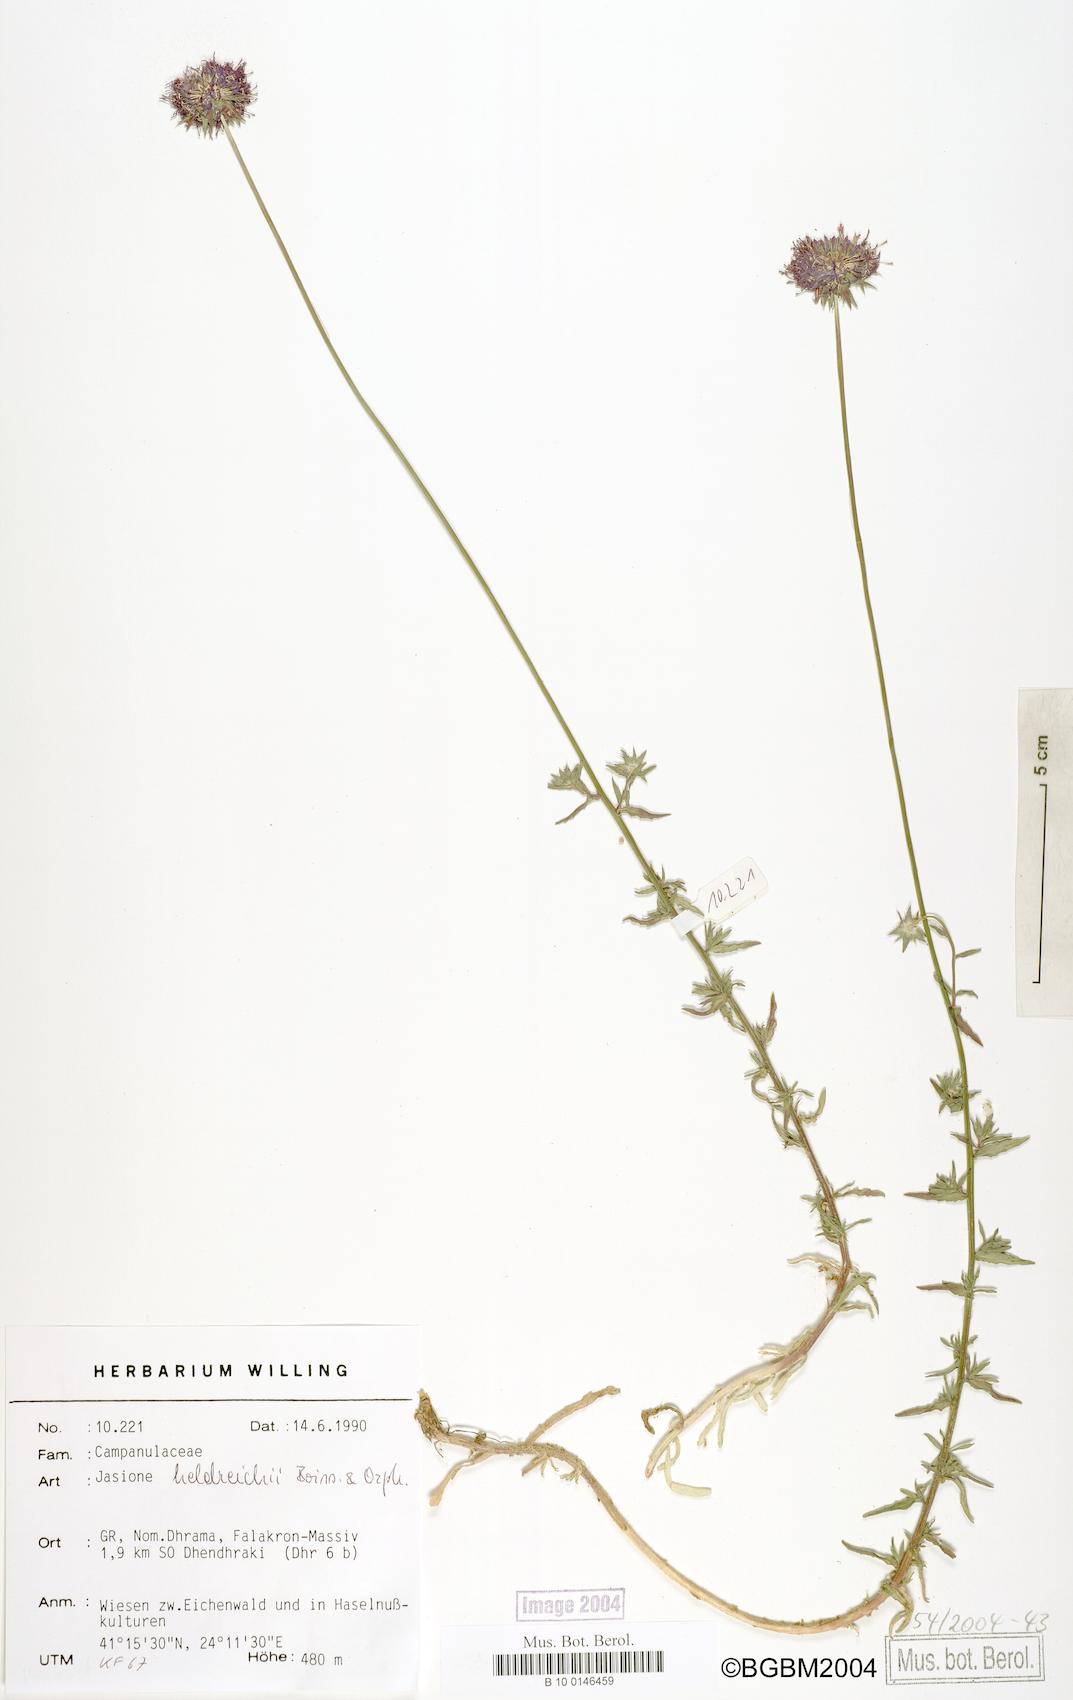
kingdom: Plantae
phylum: Tracheophyta
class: Magnoliopsida
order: Asterales
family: Campanulaceae
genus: Jasione
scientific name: Jasione heldreichii
